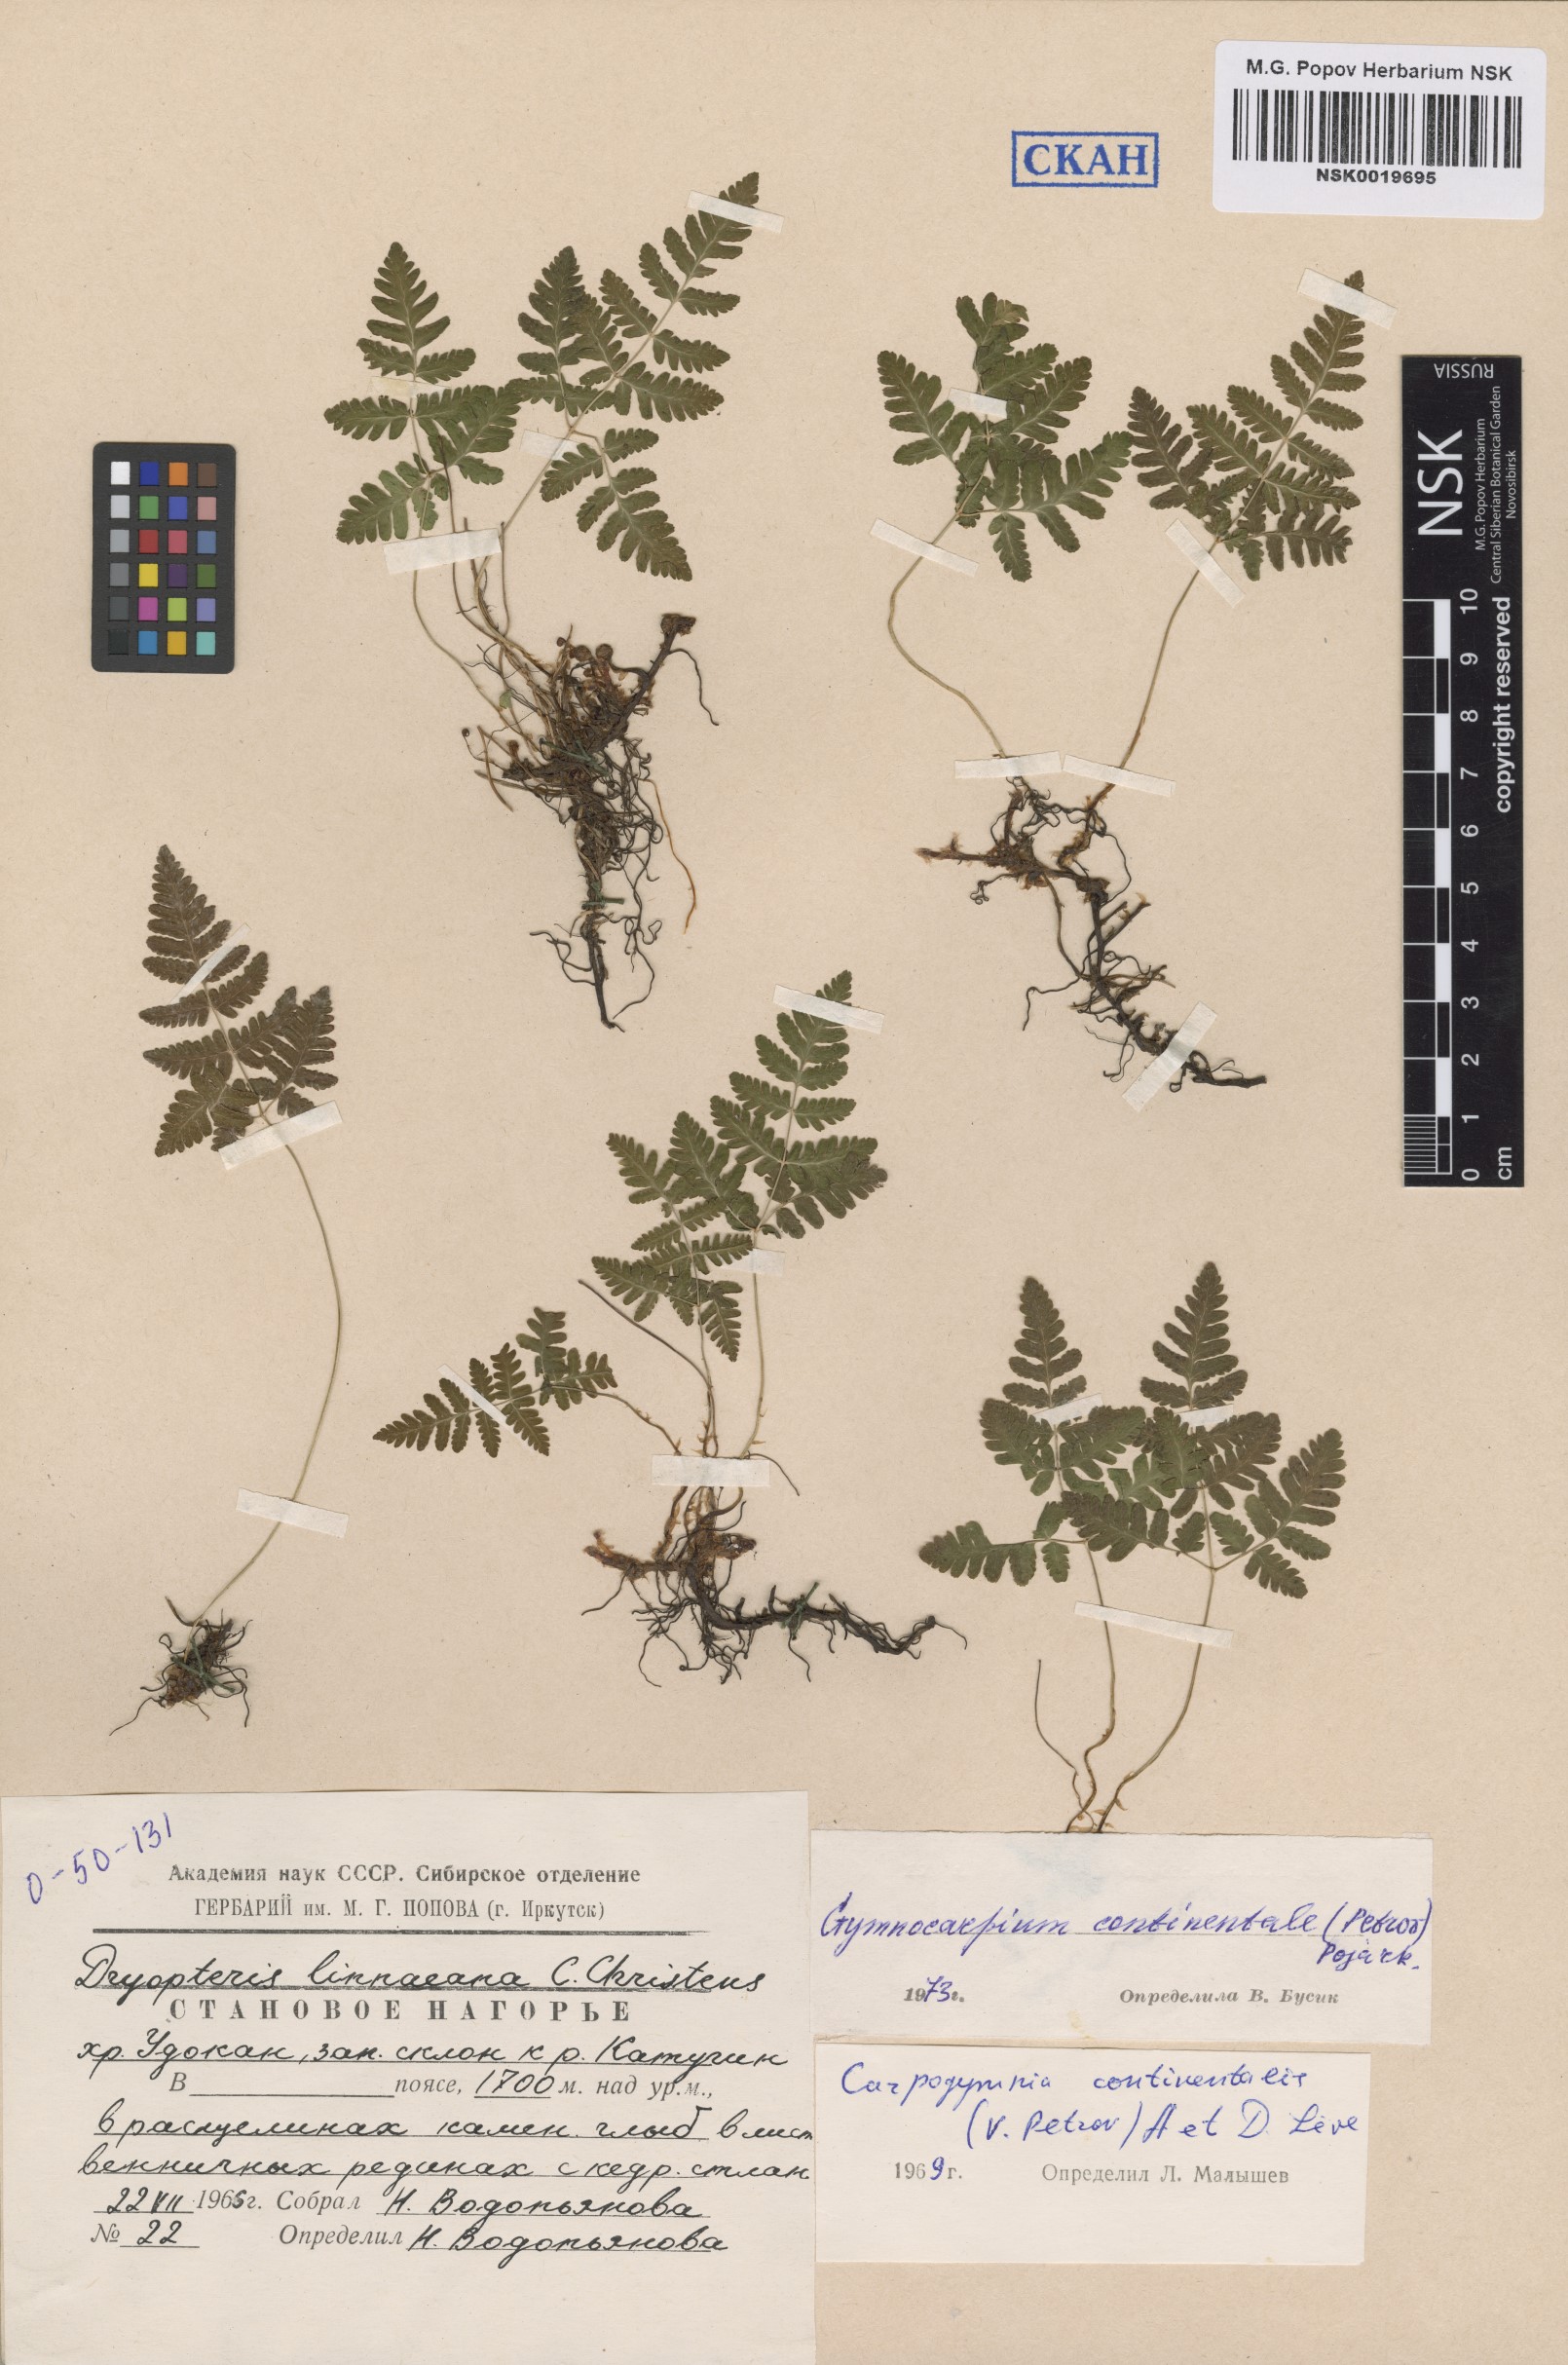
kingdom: Plantae
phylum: Tracheophyta
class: Polypodiopsida
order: Polypodiales
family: Cystopteridaceae
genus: Gymnocarpium
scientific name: Gymnocarpium continentale
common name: Asian oak fern
